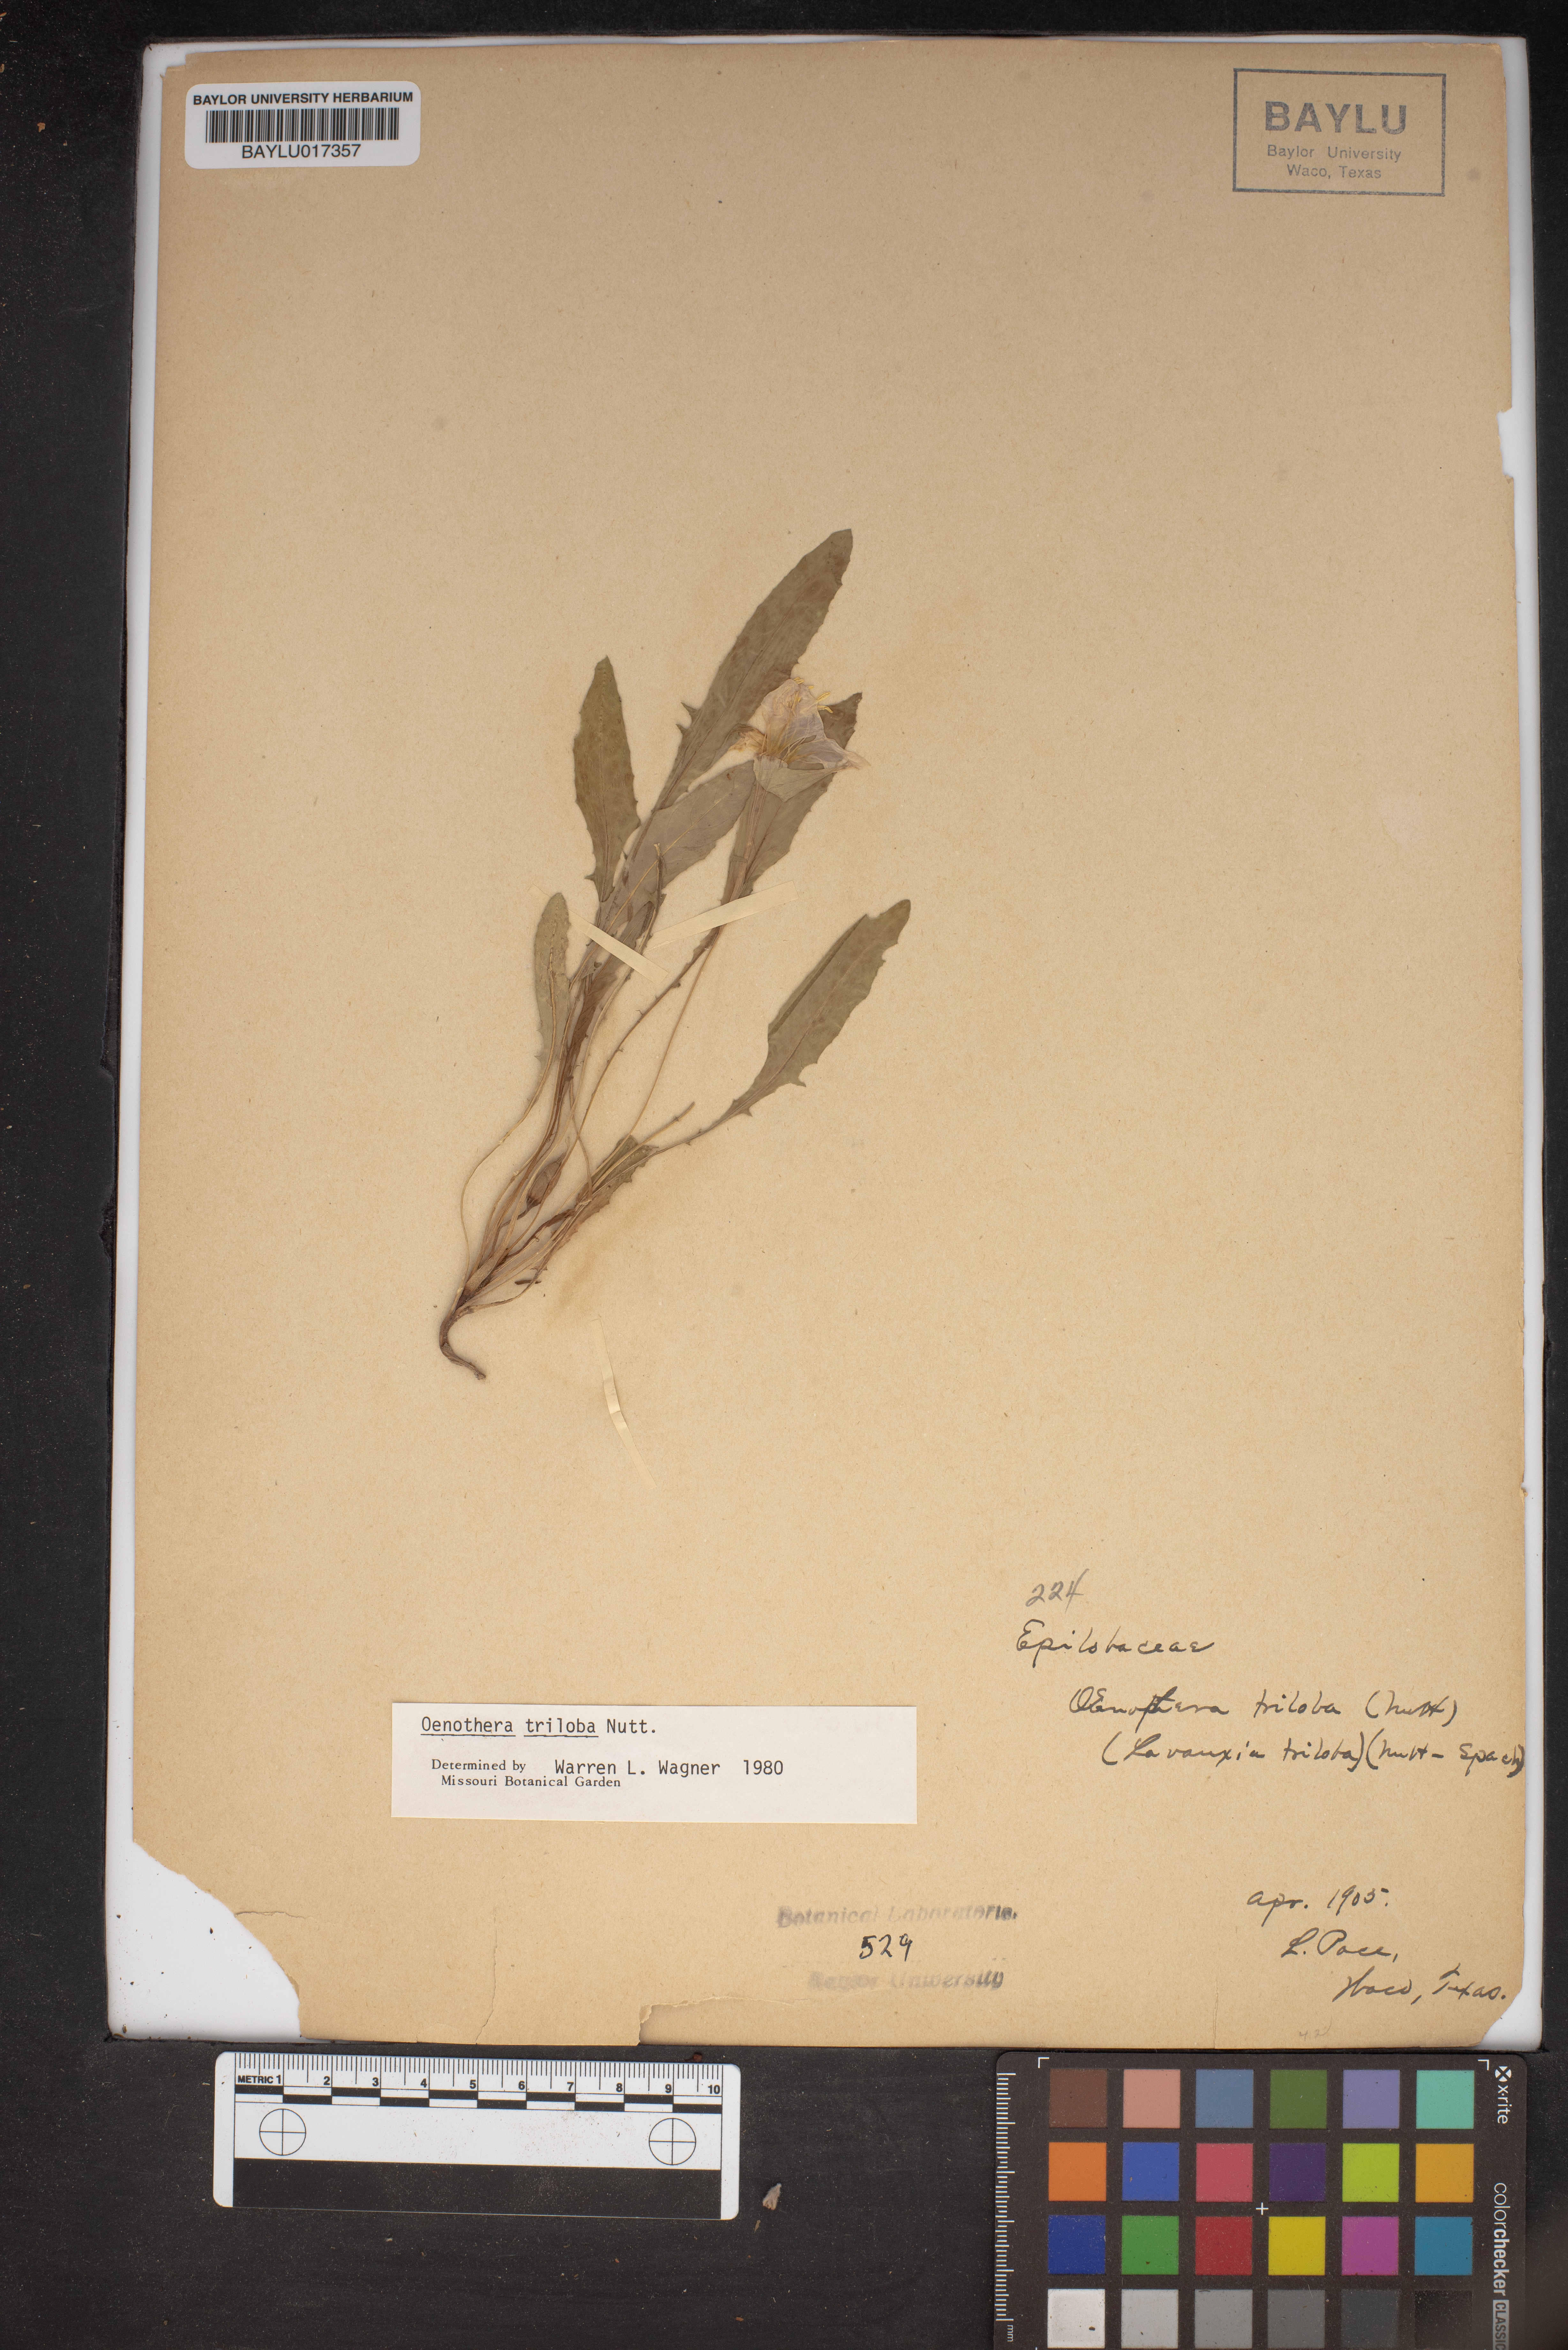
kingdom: Plantae
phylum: Tracheophyta
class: Magnoliopsida
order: Myrtales
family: Onagraceae
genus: Oenothera
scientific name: Oenothera triloba
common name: Sessile evening-primrose
